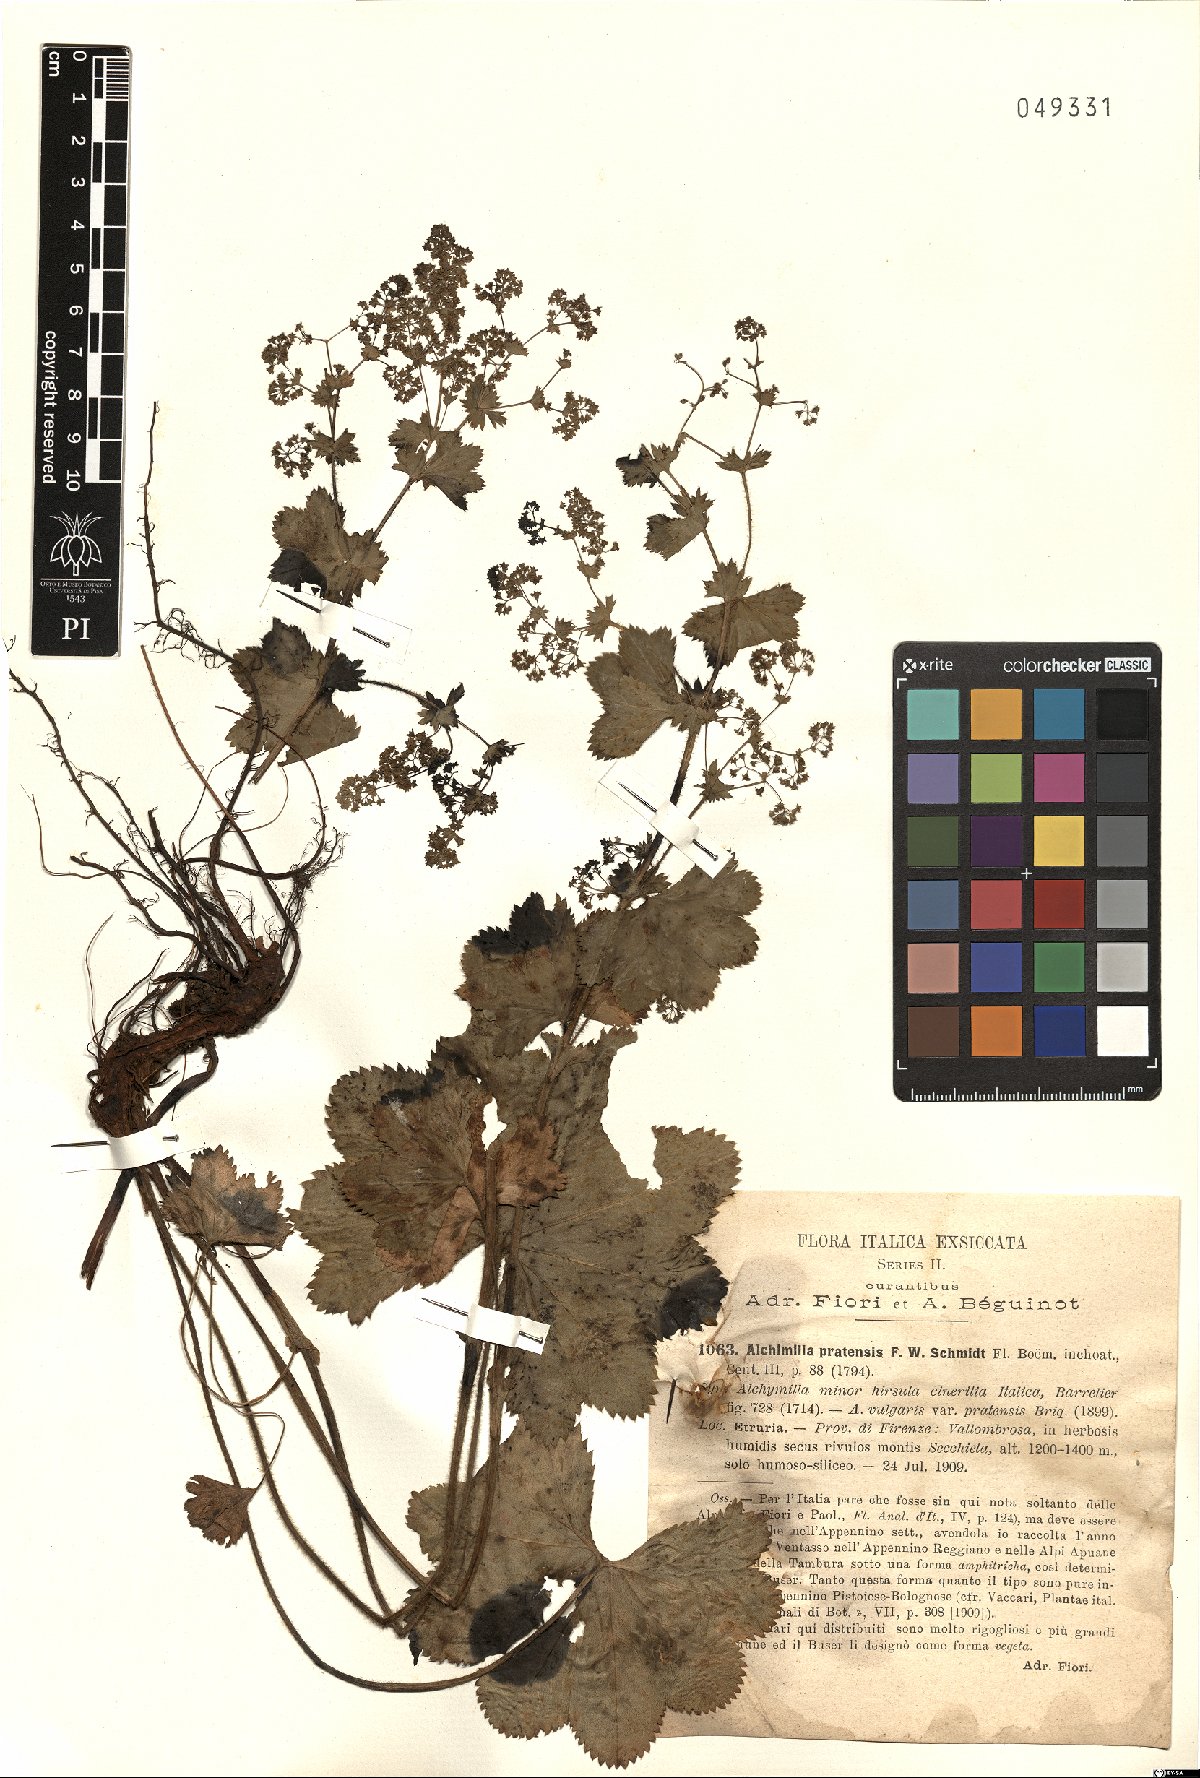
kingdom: Plantae
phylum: Tracheophyta
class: Magnoliopsida
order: Rosales
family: Rosaceae
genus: Alchemilla
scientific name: Alchemilla xanthochlora
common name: Intermediate lady's-mantle
